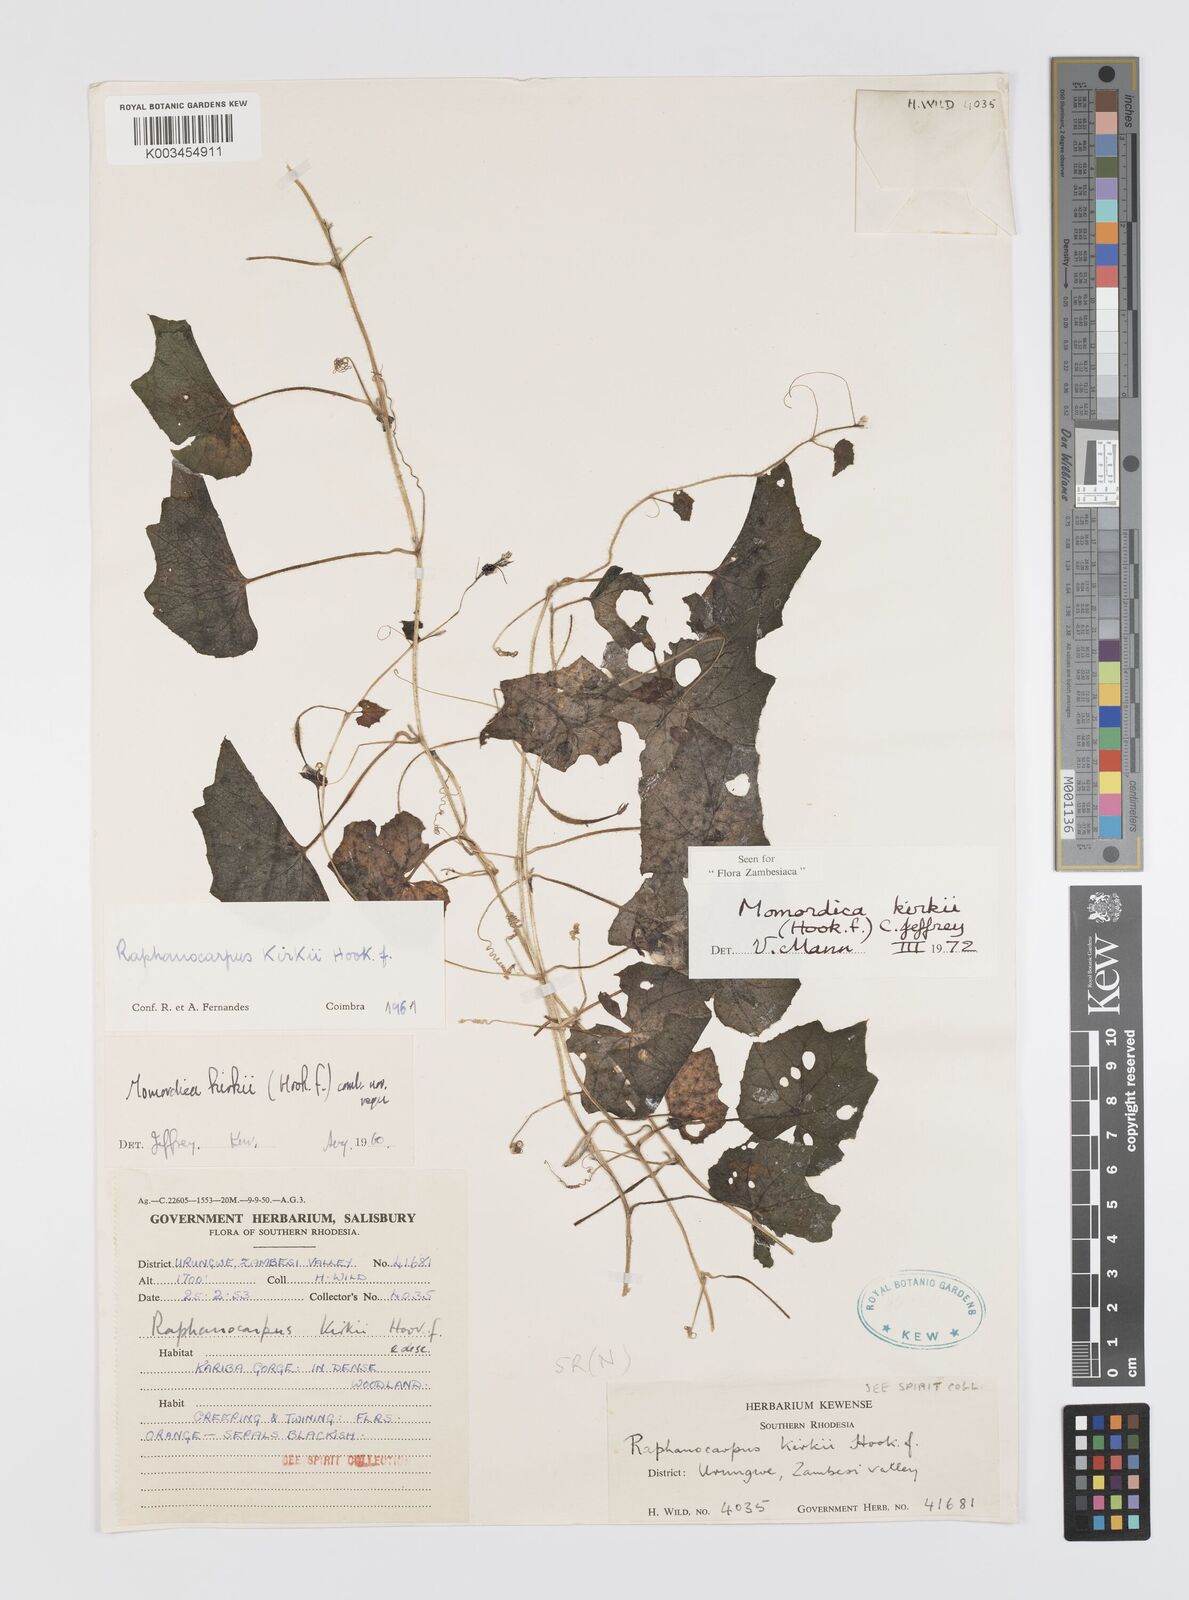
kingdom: Plantae
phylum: Tracheophyta
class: Magnoliopsida
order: Cucurbitales
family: Cucurbitaceae
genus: Momordica
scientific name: Momordica kirkii
